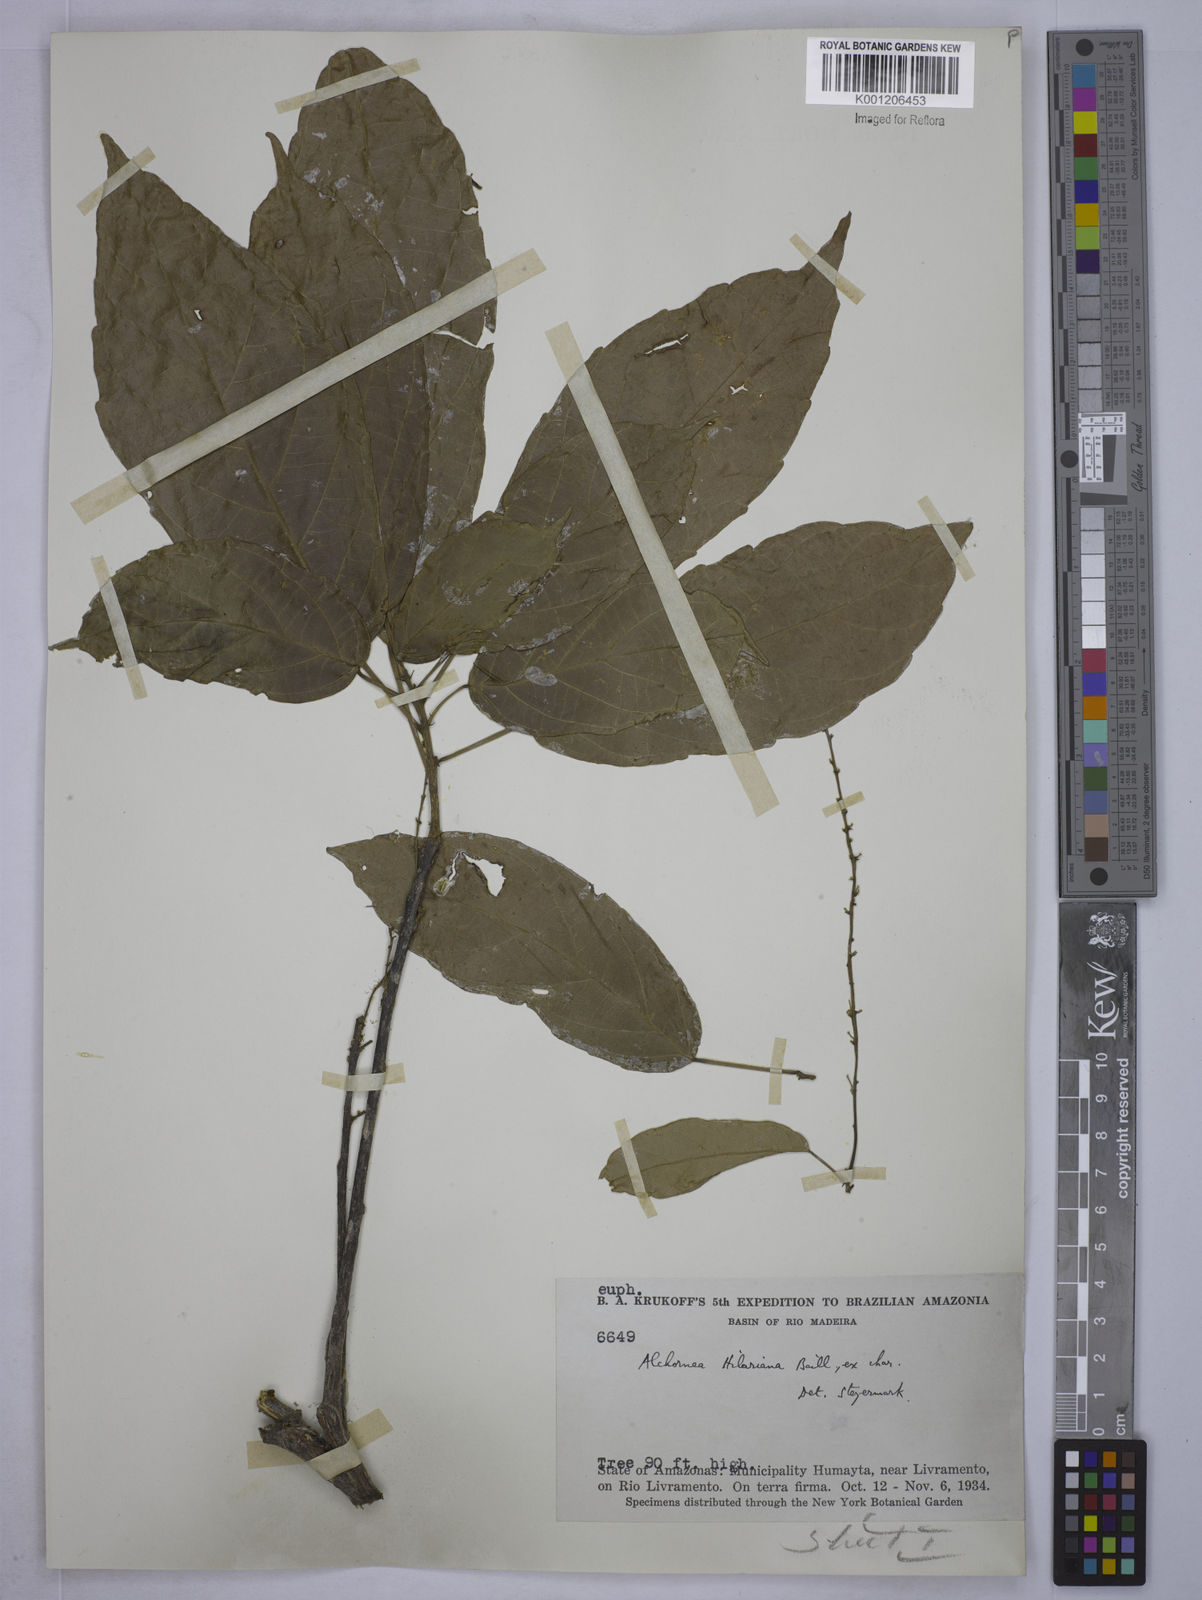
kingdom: Plantae
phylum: Tracheophyta
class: Magnoliopsida
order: Malpighiales
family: Euphorbiaceae
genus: Conceveiba
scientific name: Conceveiba praealta
